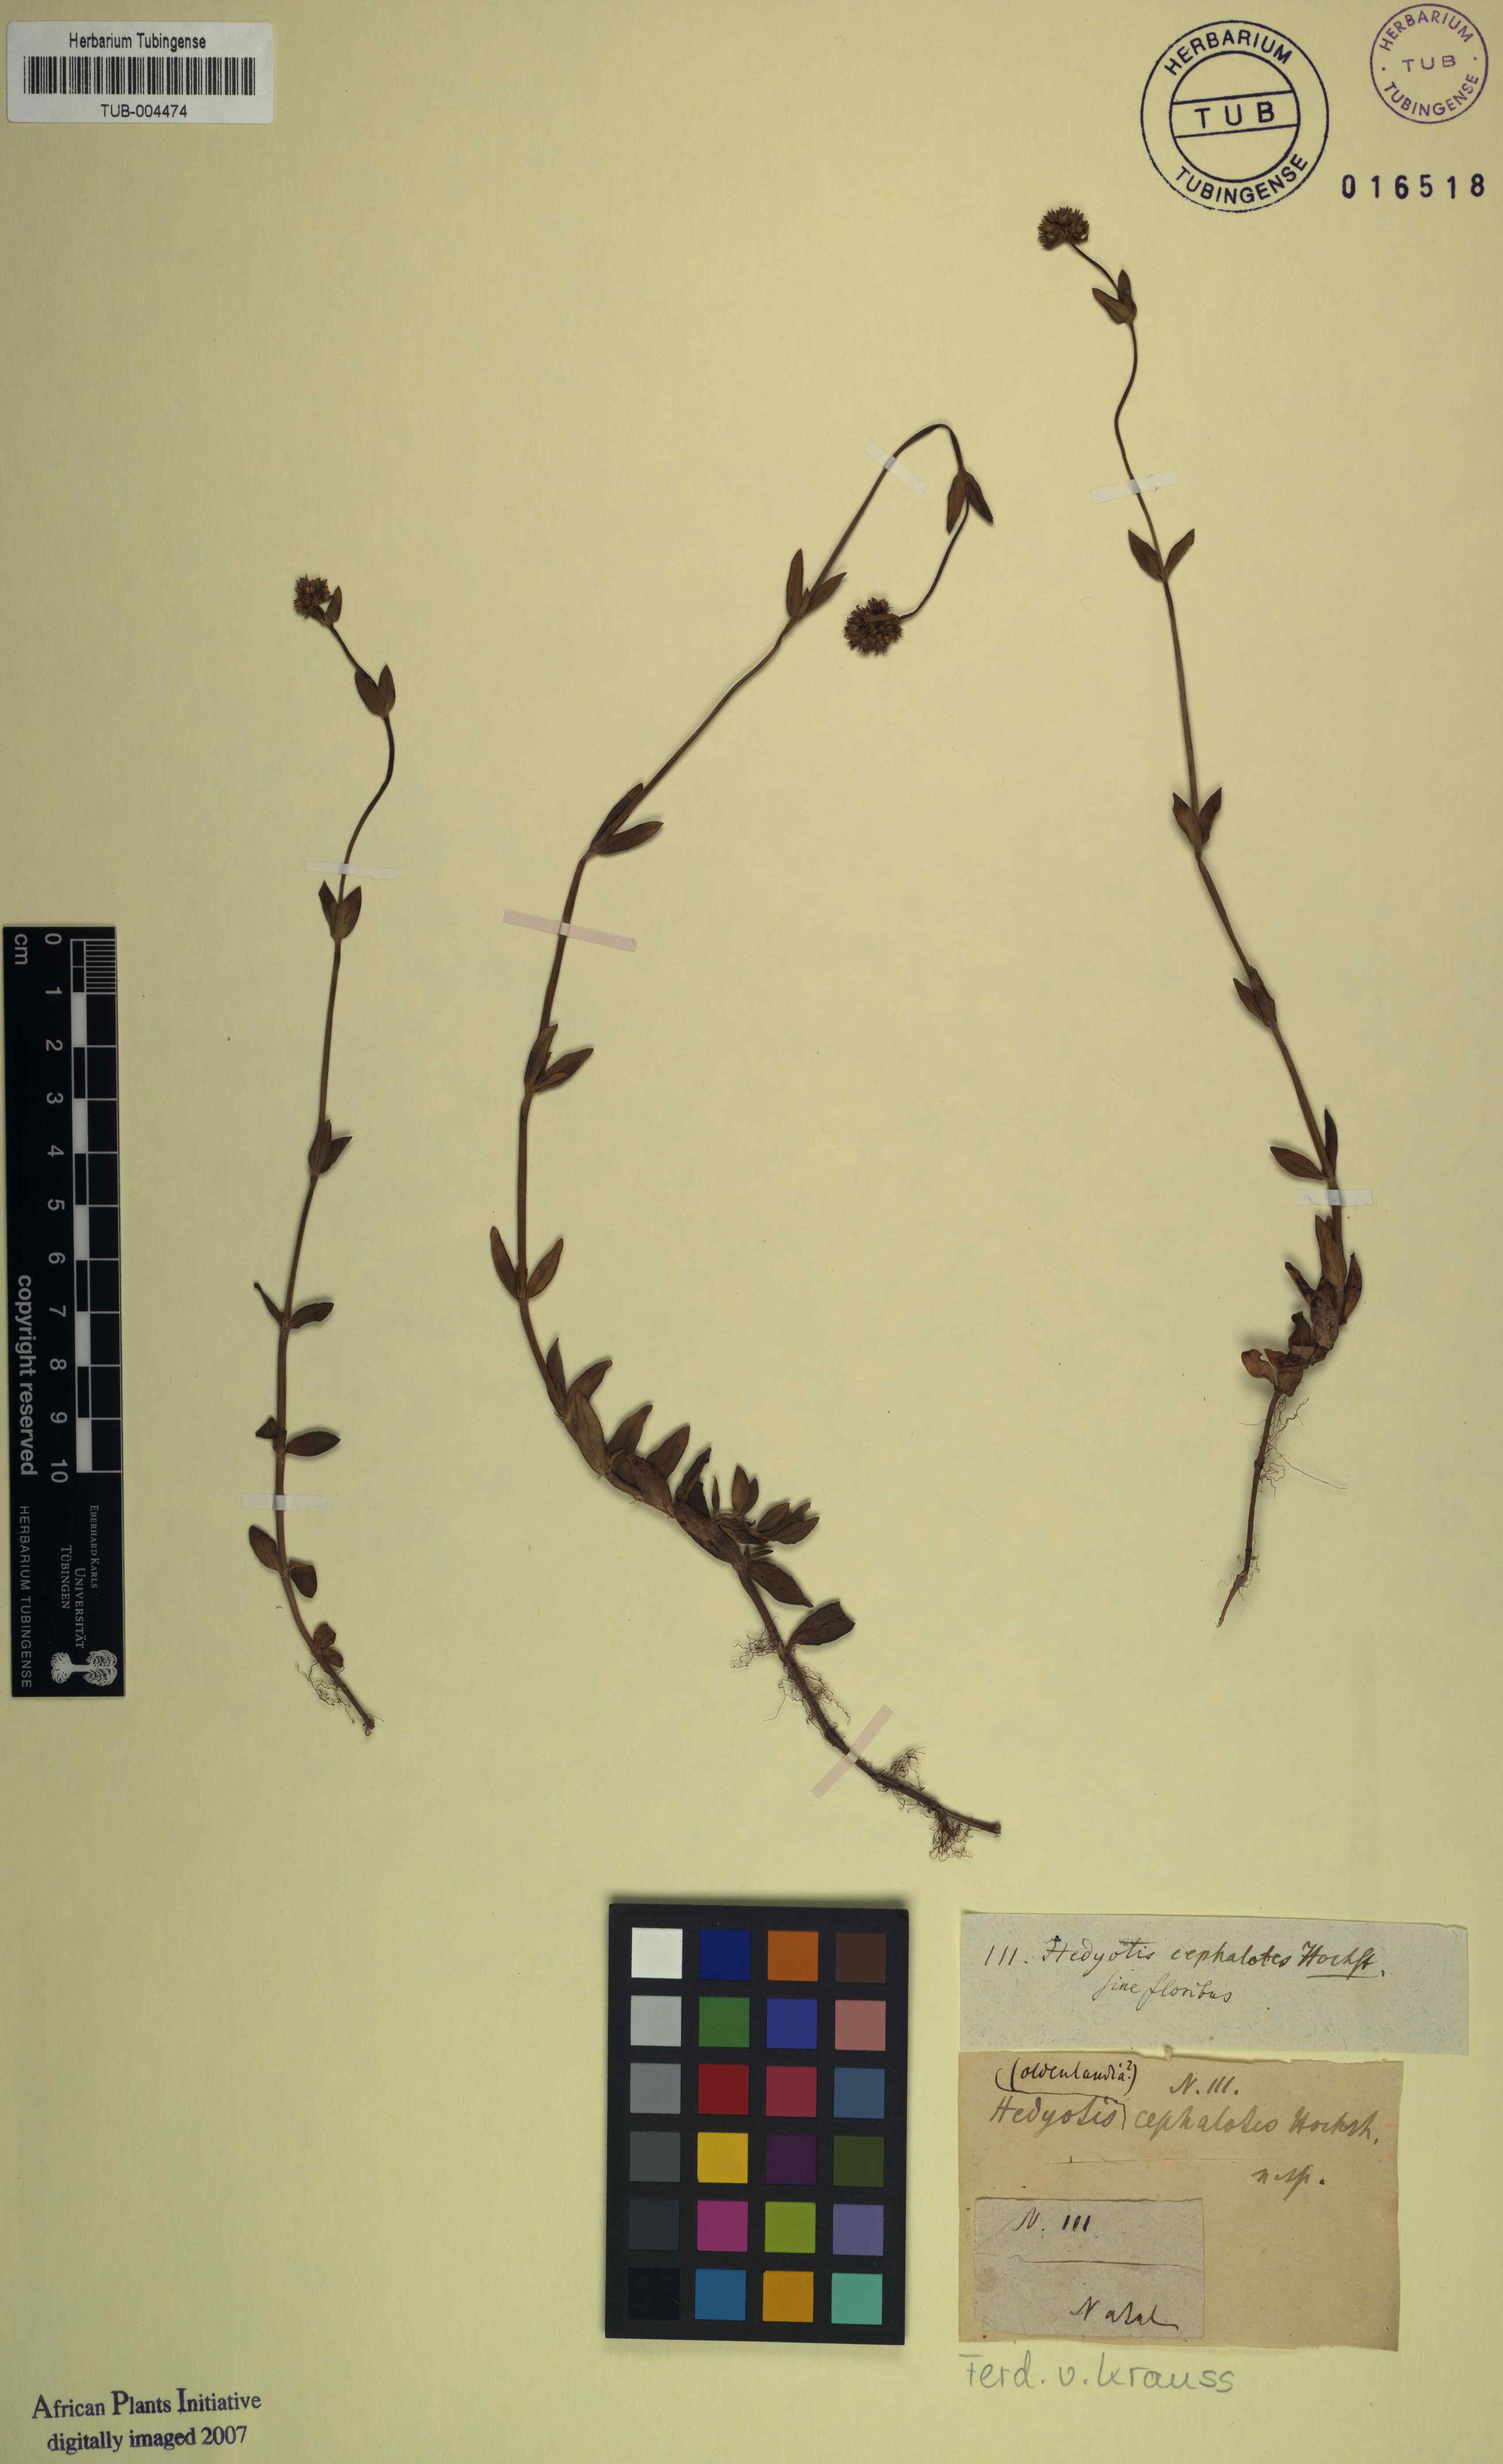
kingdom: Plantae
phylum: Tracheophyta
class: Magnoliopsida
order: Gentianales
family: Rubiaceae
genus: Edrastima
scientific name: Edrastima cephalotes
